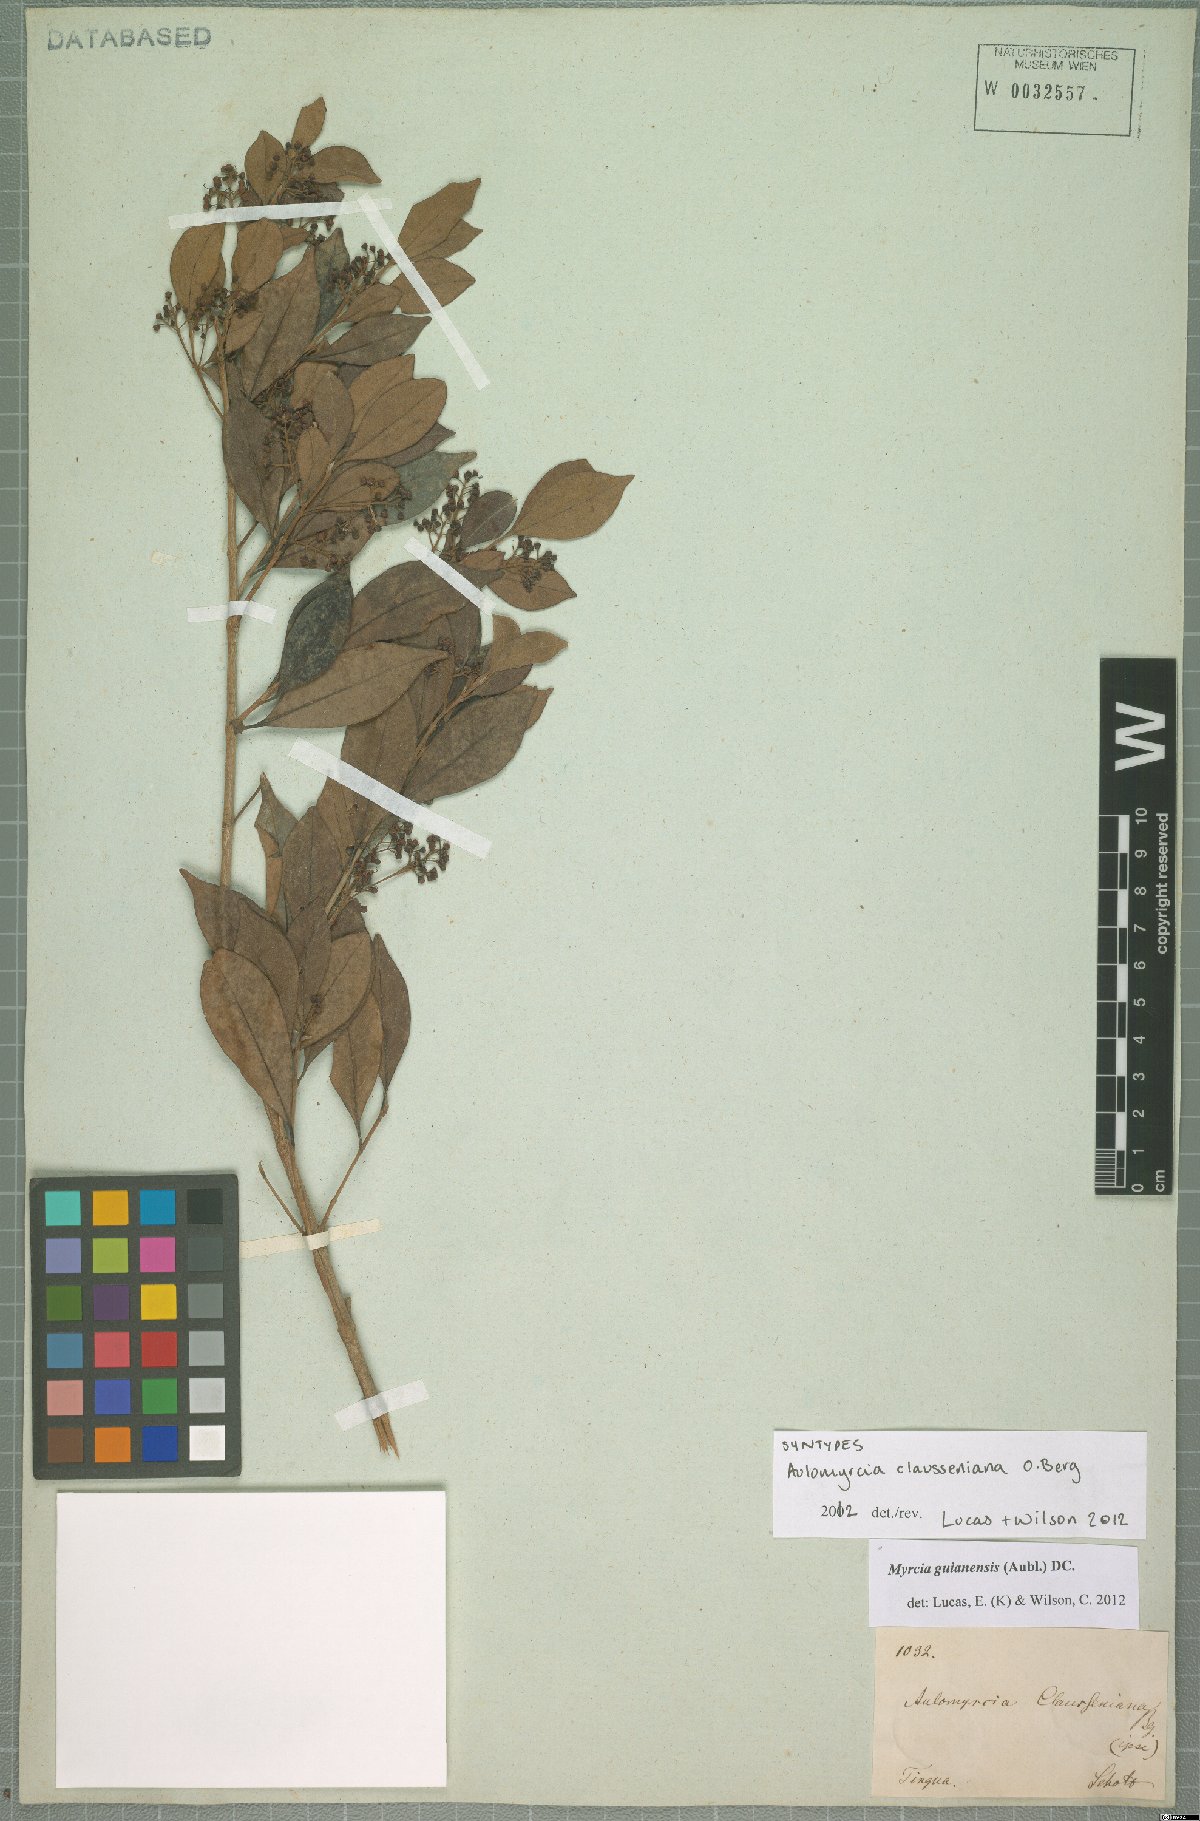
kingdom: Plantae
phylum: Tracheophyta
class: Magnoliopsida
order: Myrtales
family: Myrtaceae
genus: Myrcia
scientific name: Myrcia guianensis
